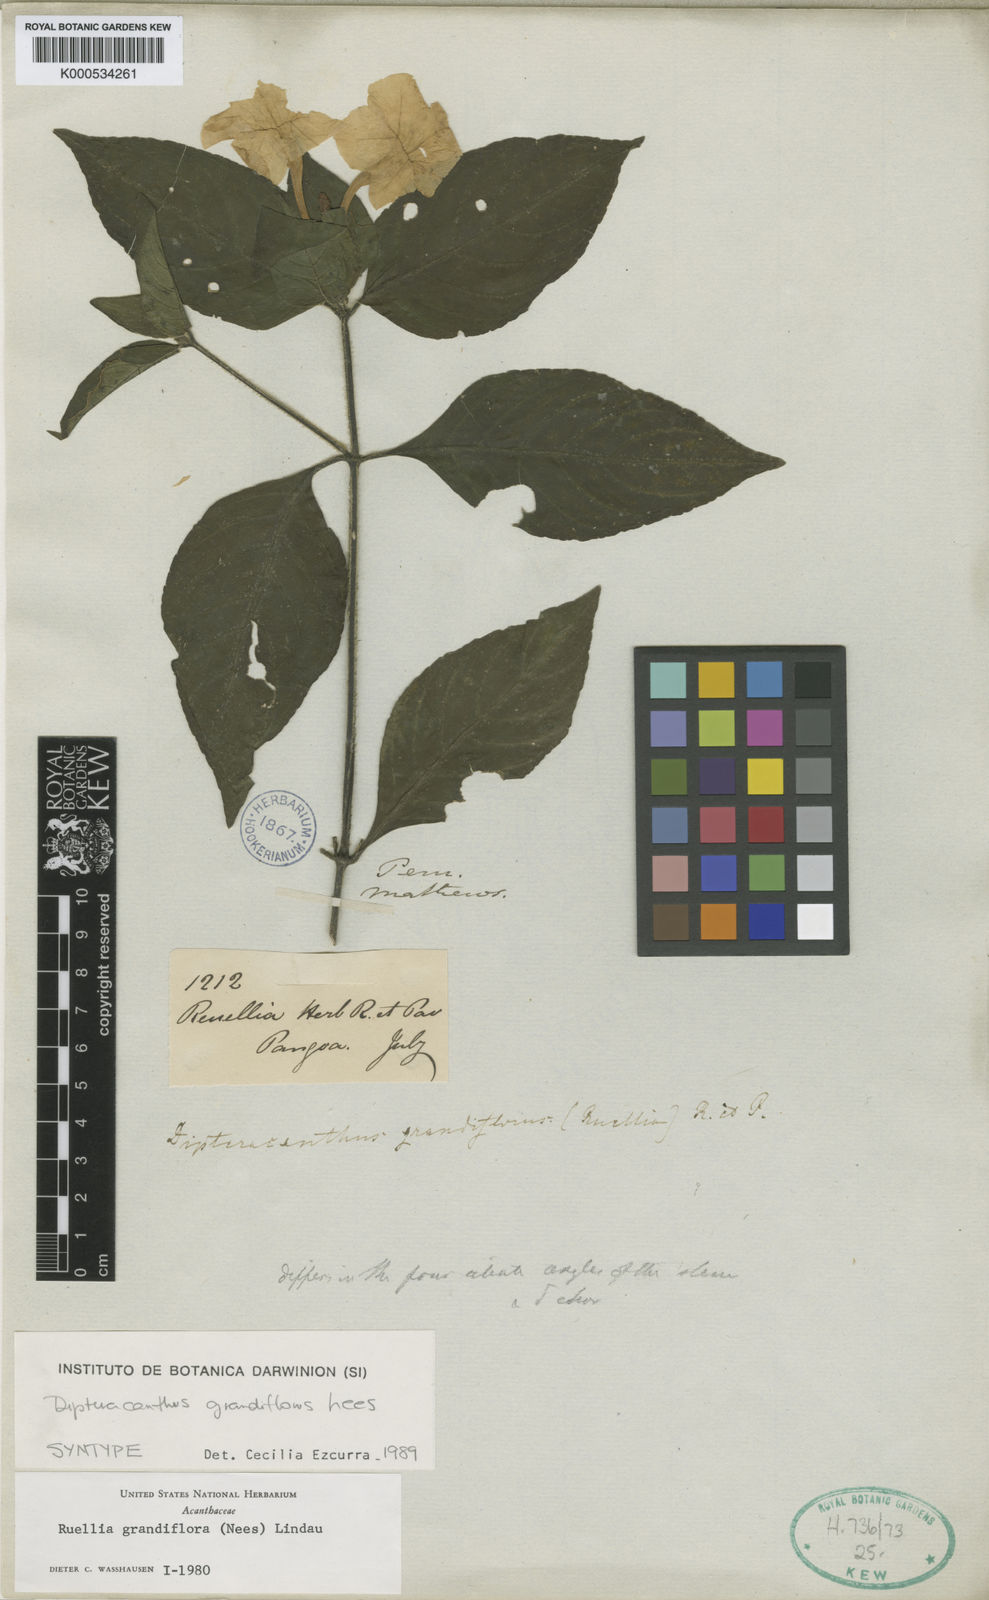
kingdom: Plantae
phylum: Tracheophyta
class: Magnoliopsida
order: Lamiales
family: Acanthaceae
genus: Ruellia
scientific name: Ruellia yurimaguensis
